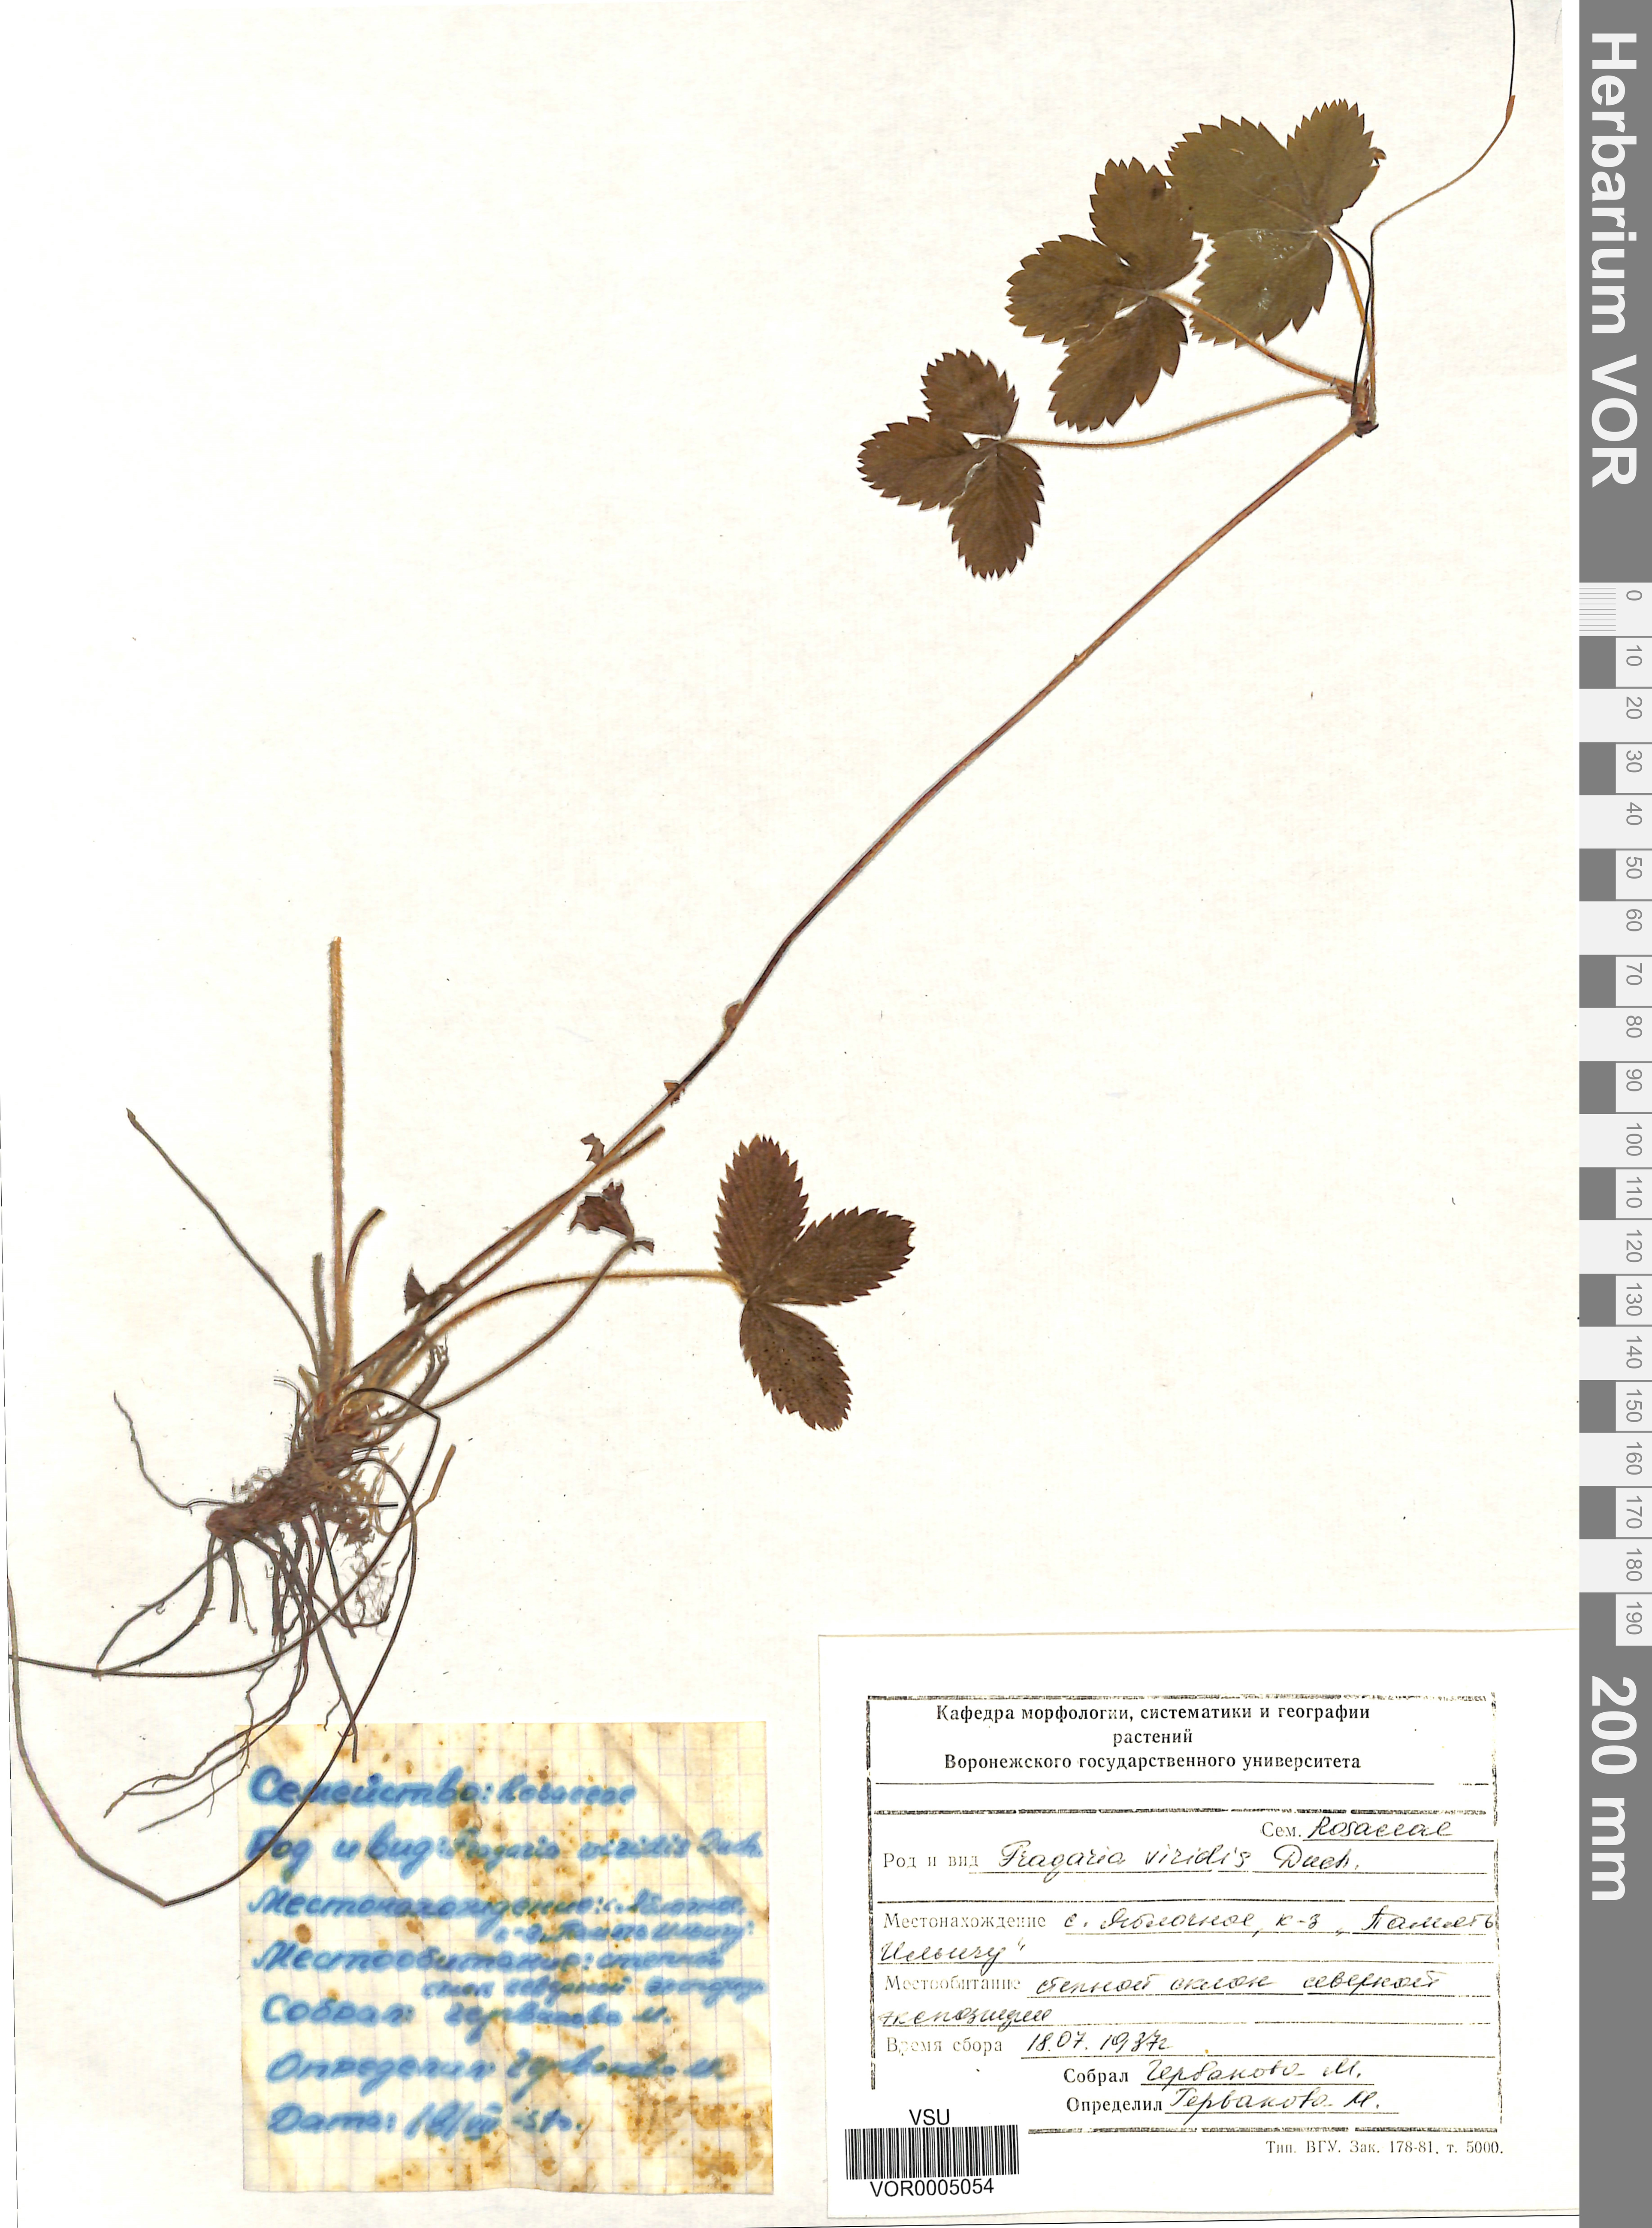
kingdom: Plantae
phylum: Tracheophyta
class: Magnoliopsida
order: Rosales
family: Rosaceae
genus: Fragaria
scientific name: Fragaria viridis
